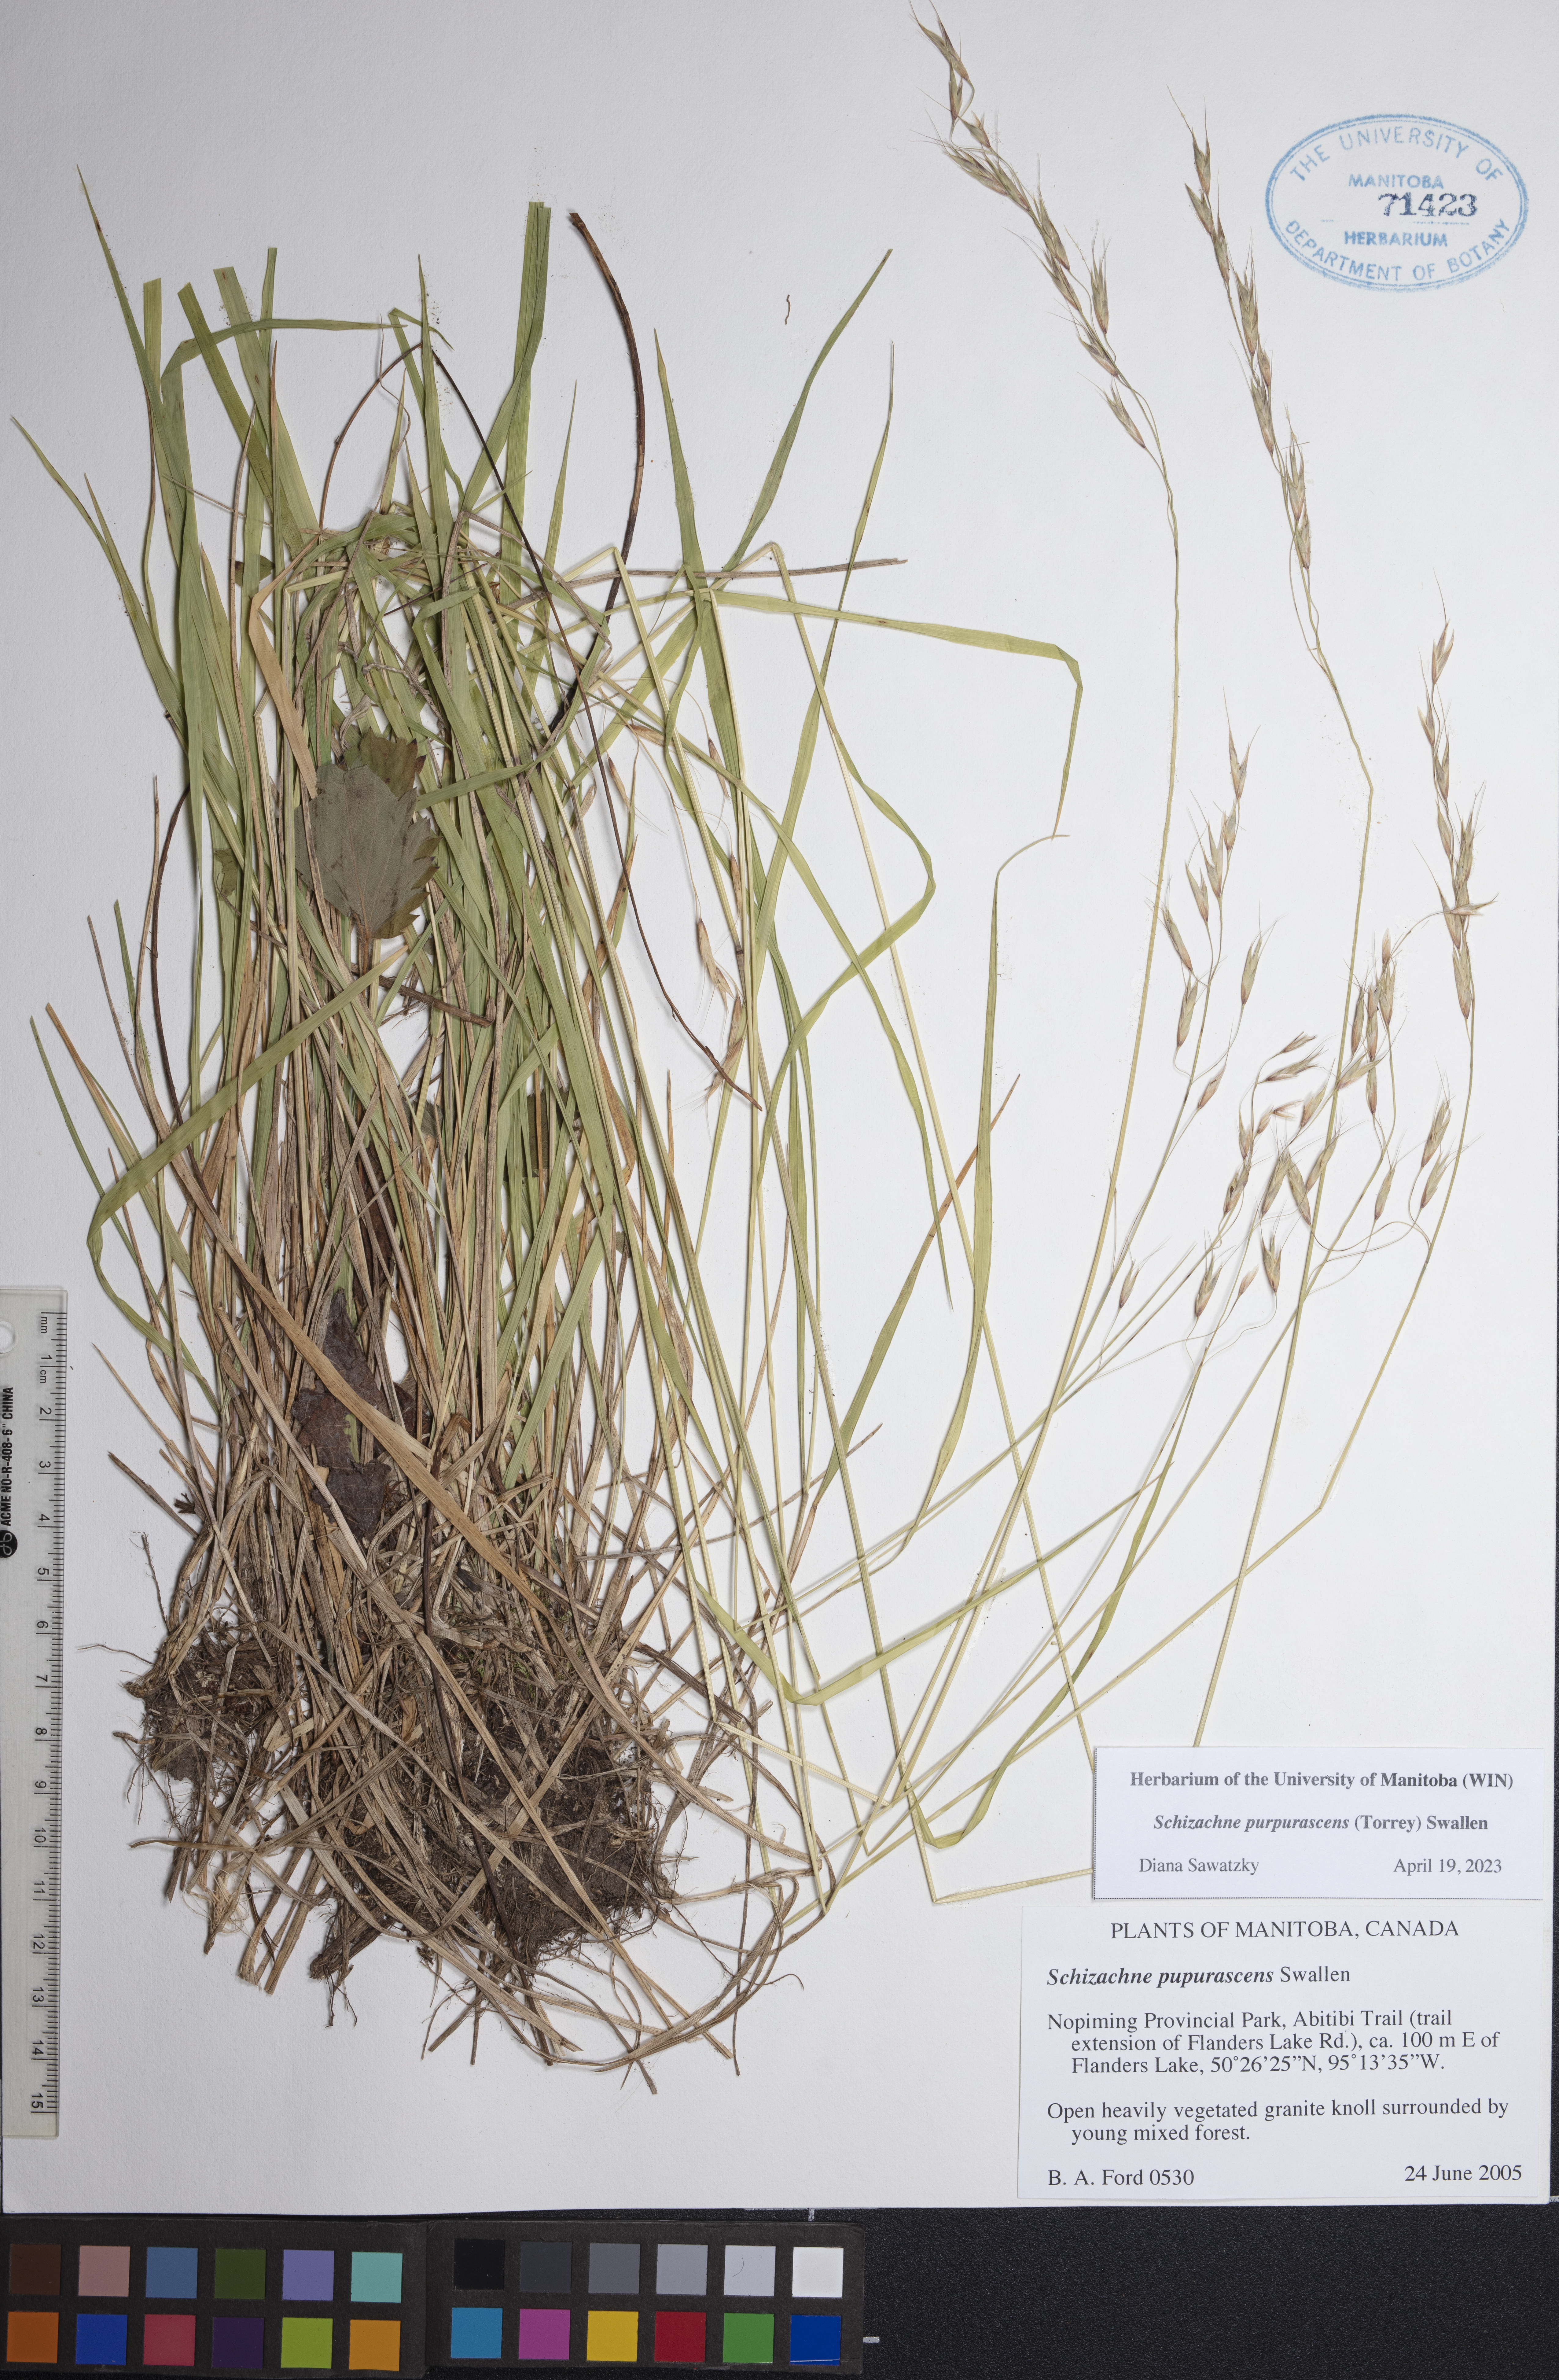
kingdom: Plantae
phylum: Tracheophyta
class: Liliopsida
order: Poales
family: Poaceae
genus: Schizachne
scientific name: Schizachne purpurascens
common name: False melic
